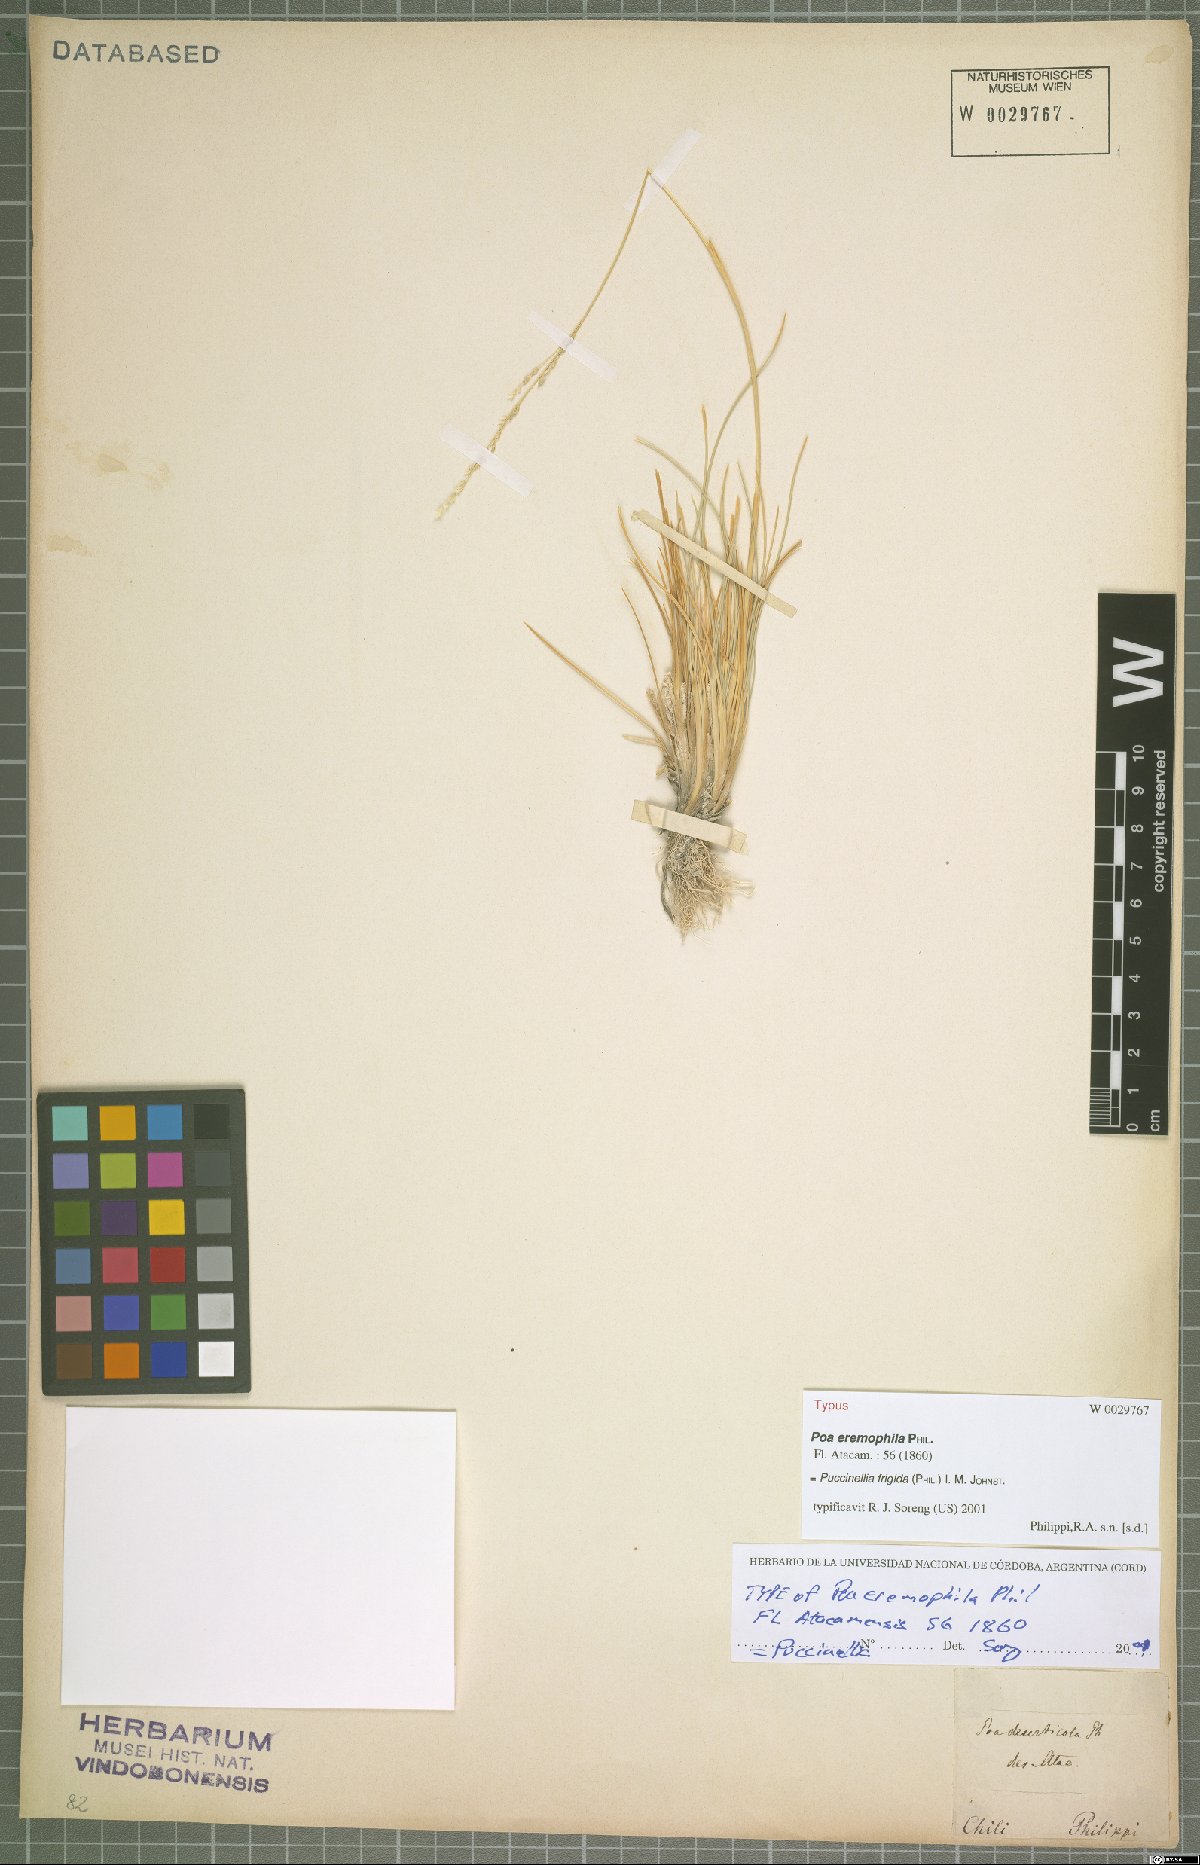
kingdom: Plantae
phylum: Tracheophyta
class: Liliopsida
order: Poales
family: Poaceae
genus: Puccinellia
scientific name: Puccinellia frigida
